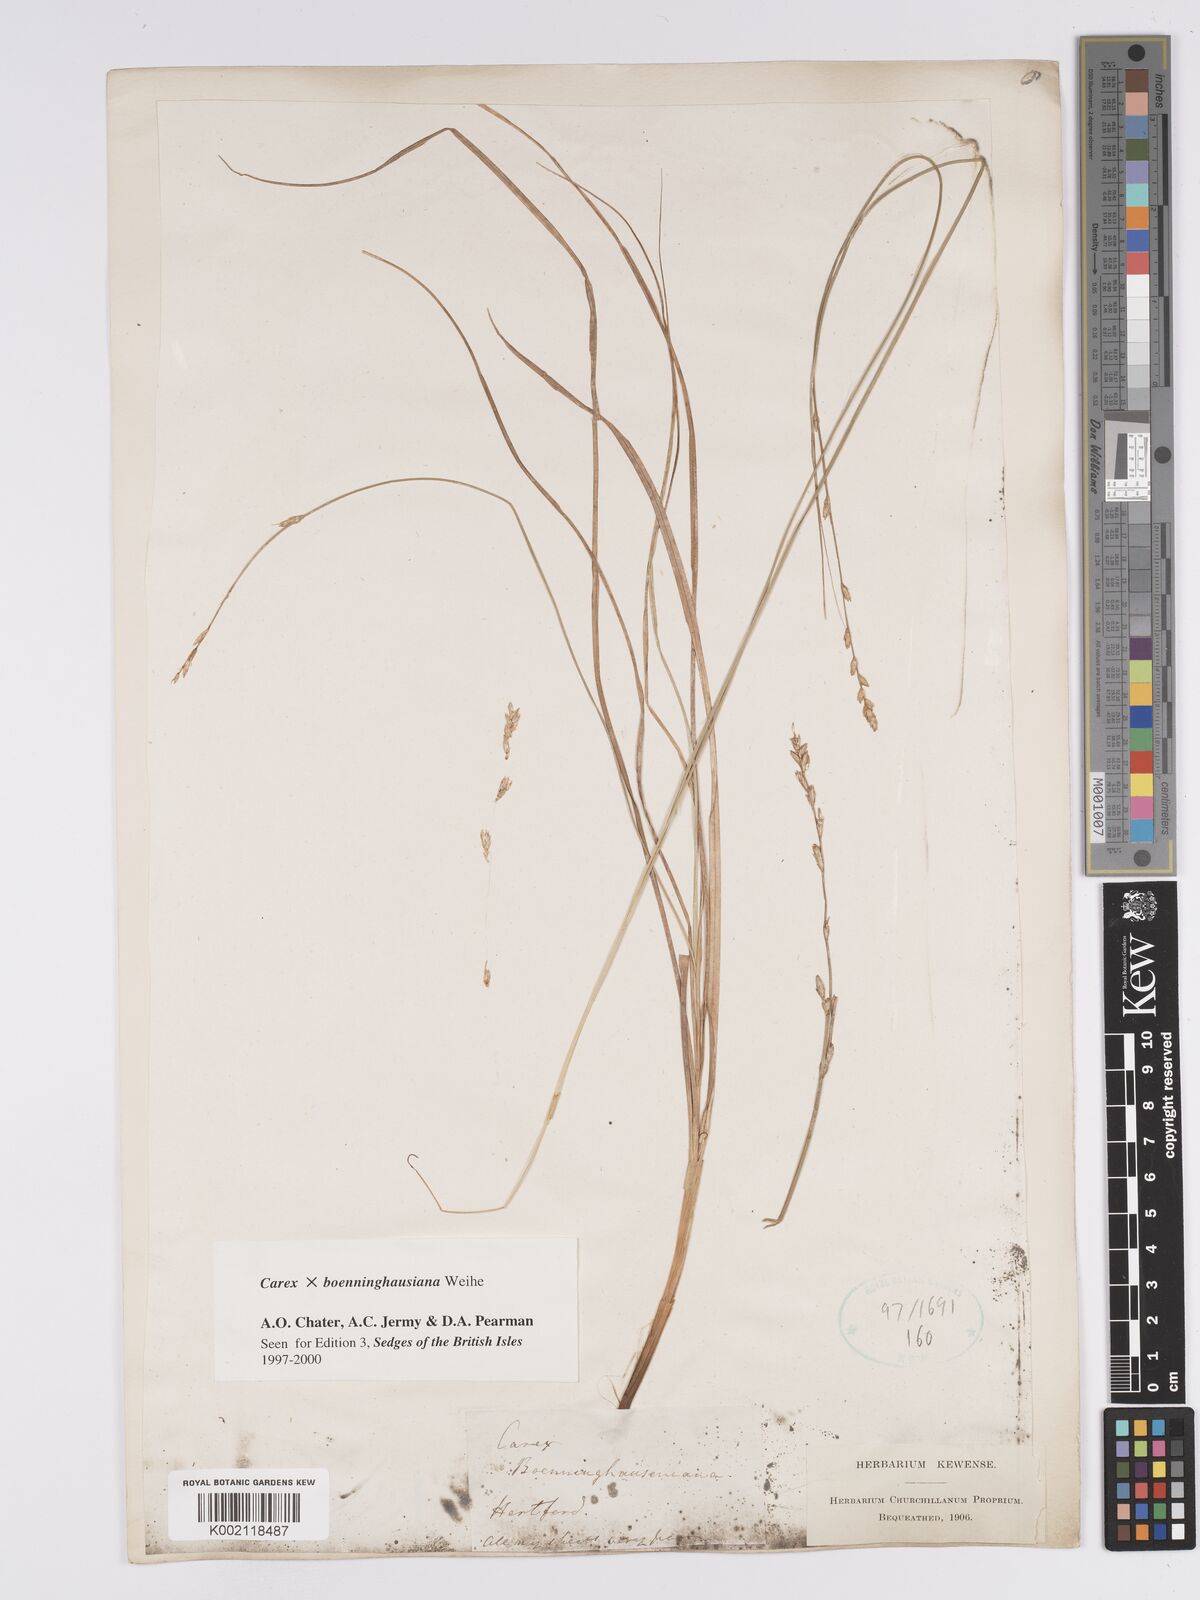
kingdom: Plantae
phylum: Tracheophyta
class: Liliopsida
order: Poales
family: Cyperaceae
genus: Carex
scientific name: Carex boenninghausiana
